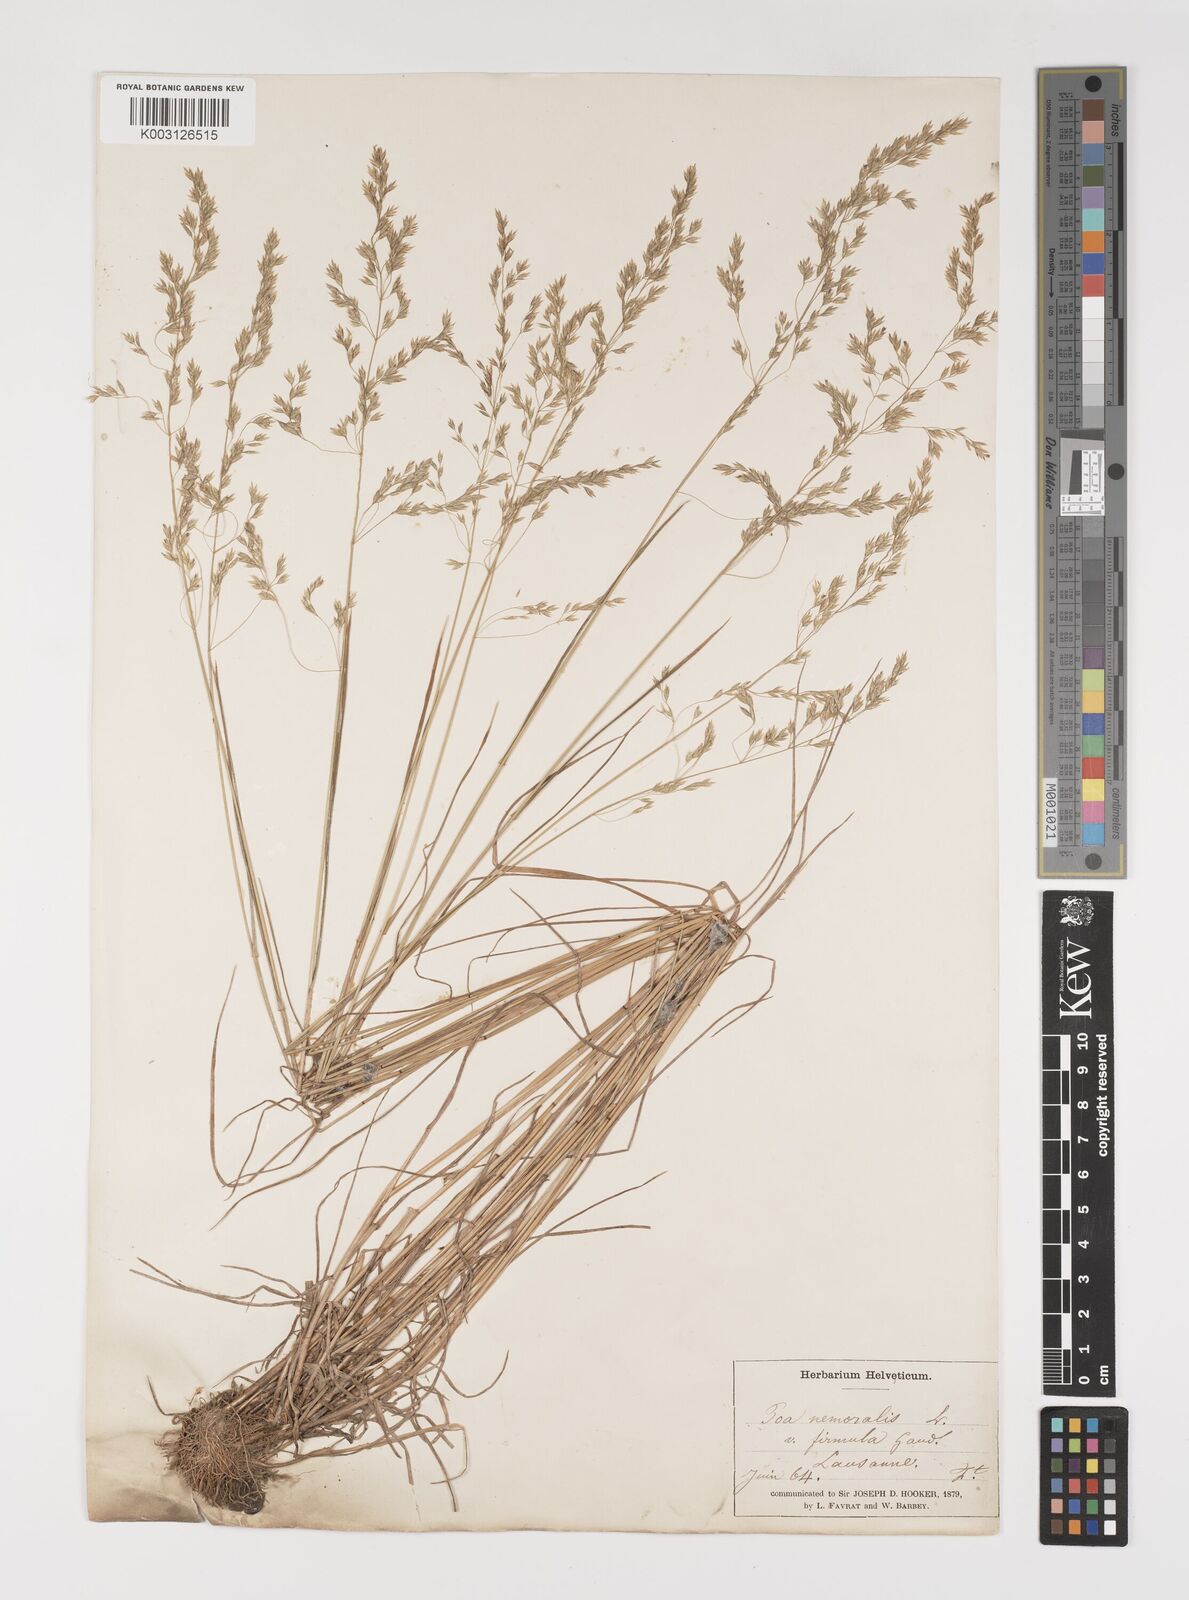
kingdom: Plantae
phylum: Tracheophyta
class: Liliopsida
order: Poales
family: Poaceae
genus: Poa
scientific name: Poa nemoralis
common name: Wood bluegrass
